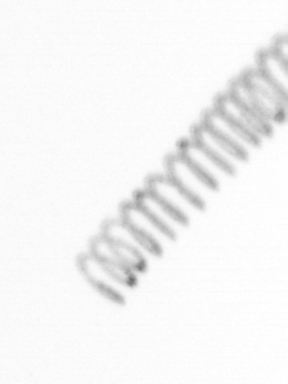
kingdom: Chromista
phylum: Ochrophyta
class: Bacillariophyceae
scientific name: Bacillariophyceae
